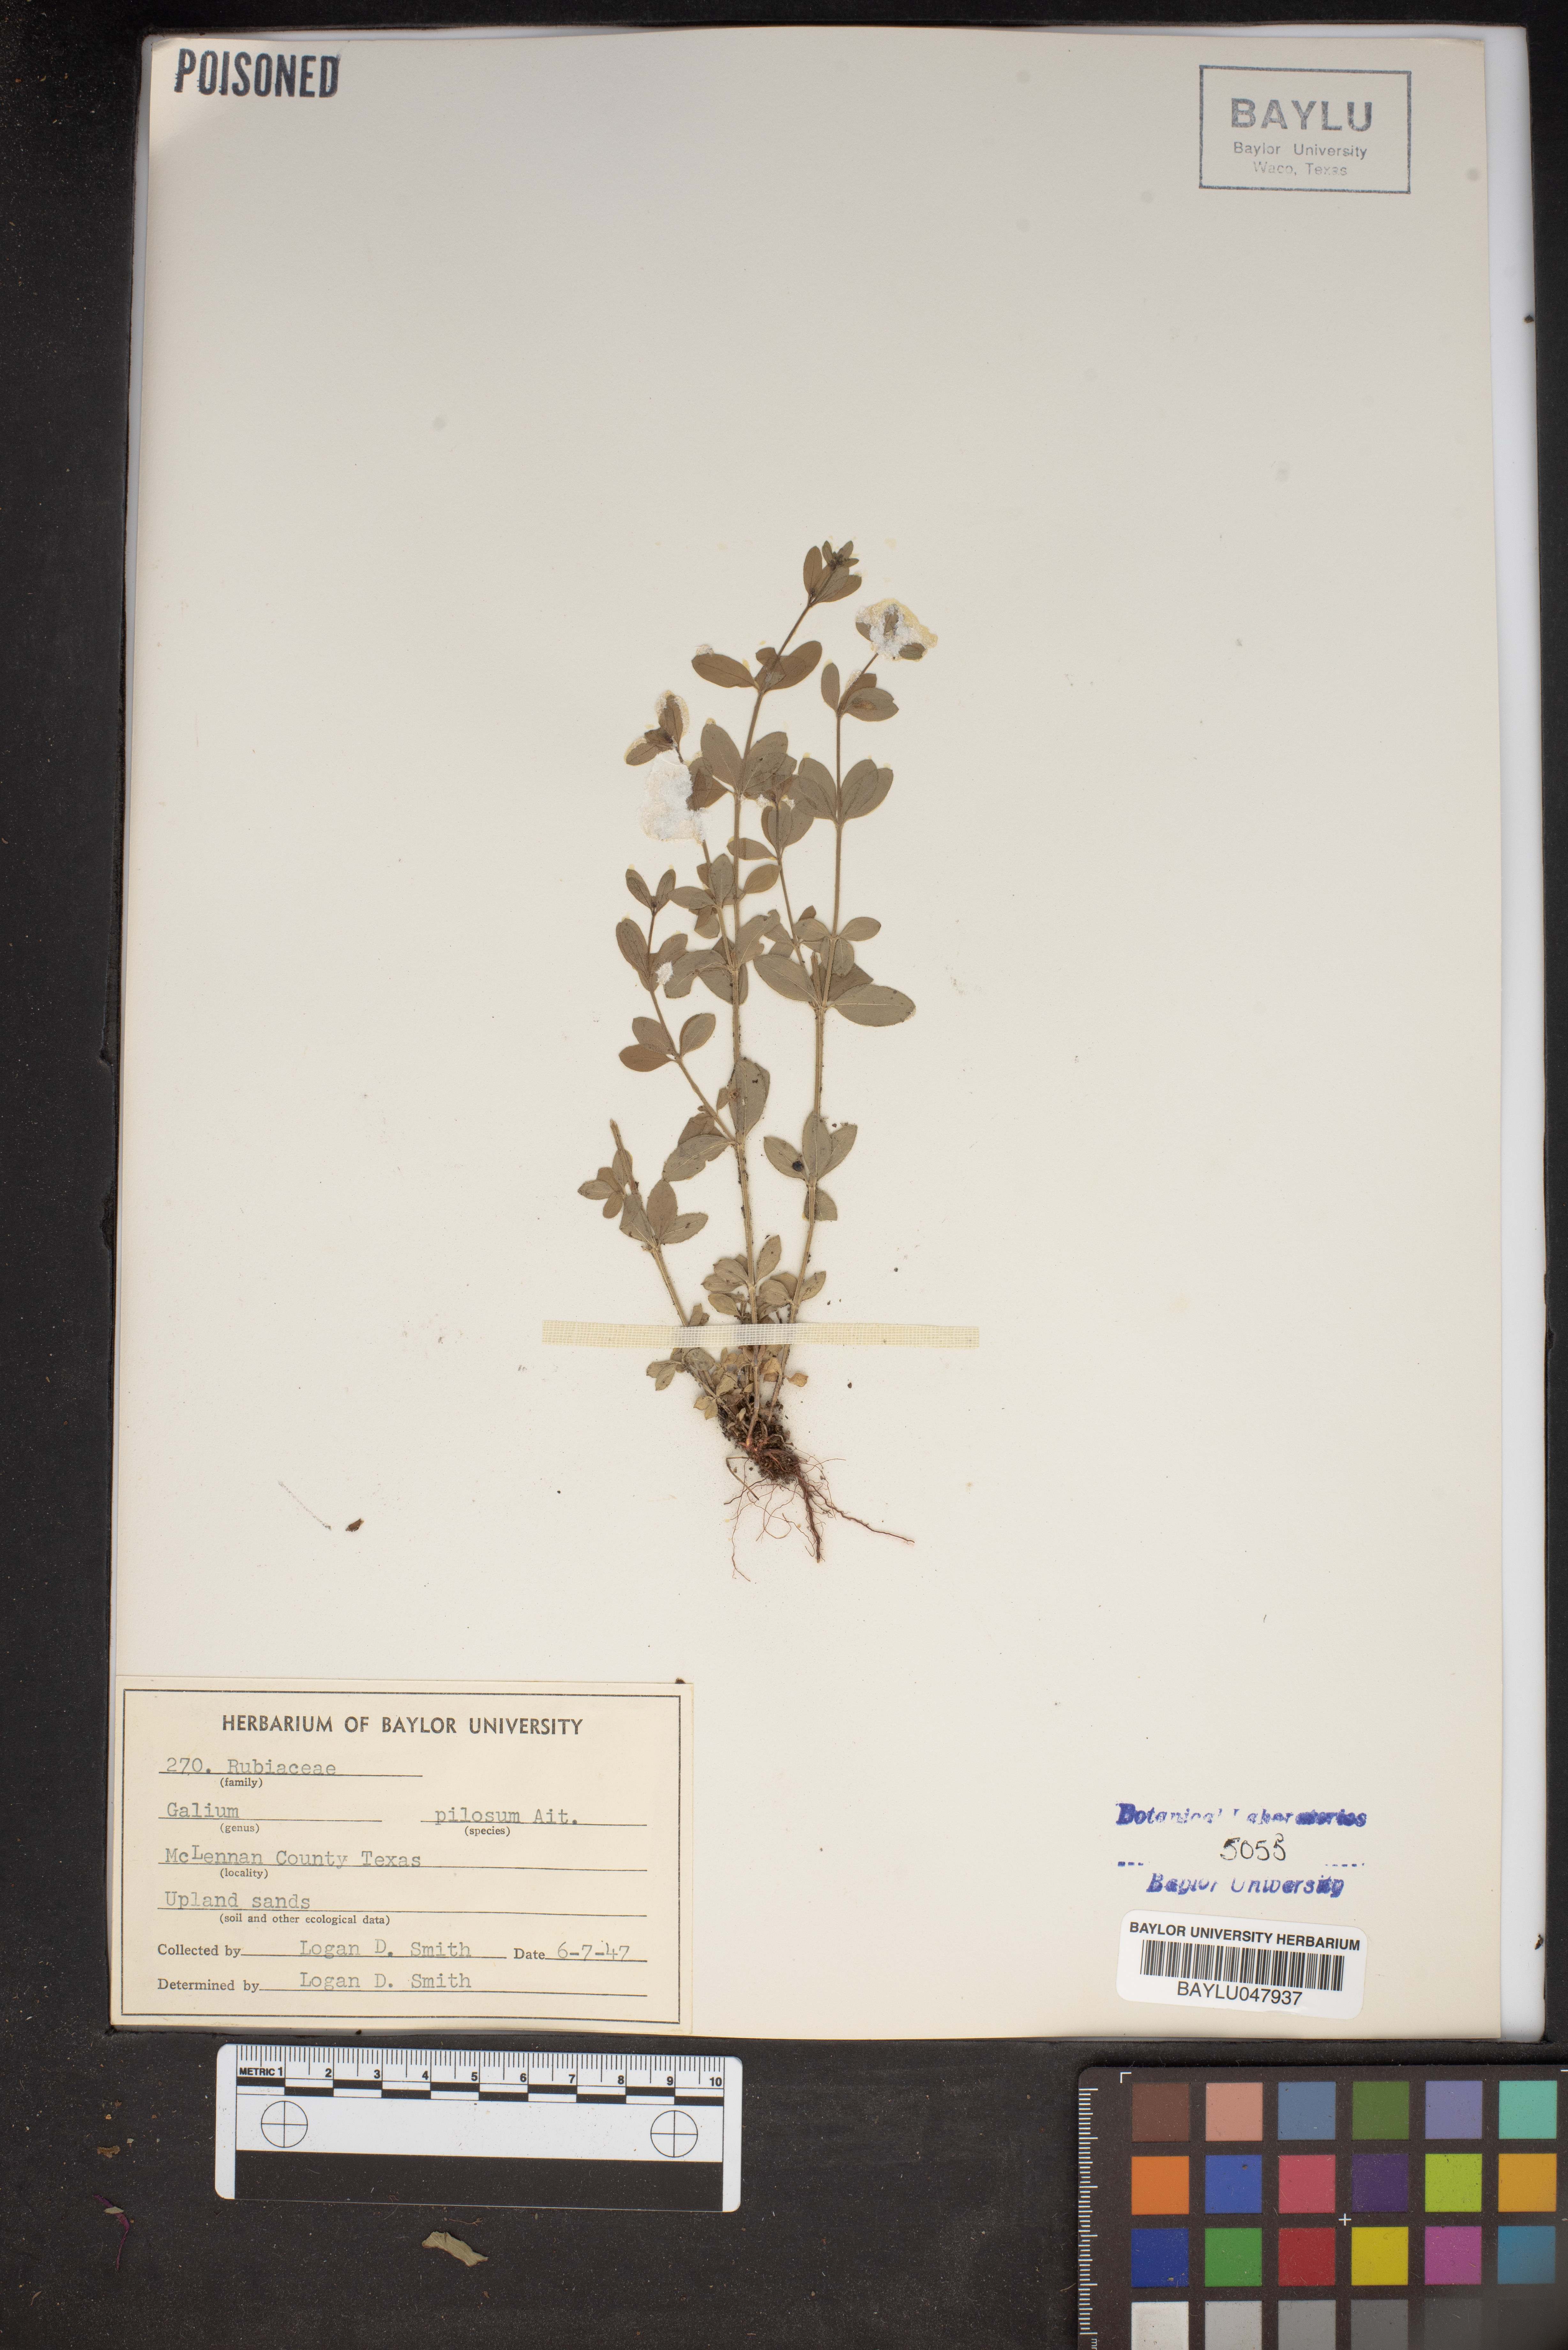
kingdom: Plantae
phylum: Tracheophyta
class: Magnoliopsida
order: Gentianales
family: Rubiaceae
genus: Galium
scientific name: Galium pilosum
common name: Hairy bedstraw
